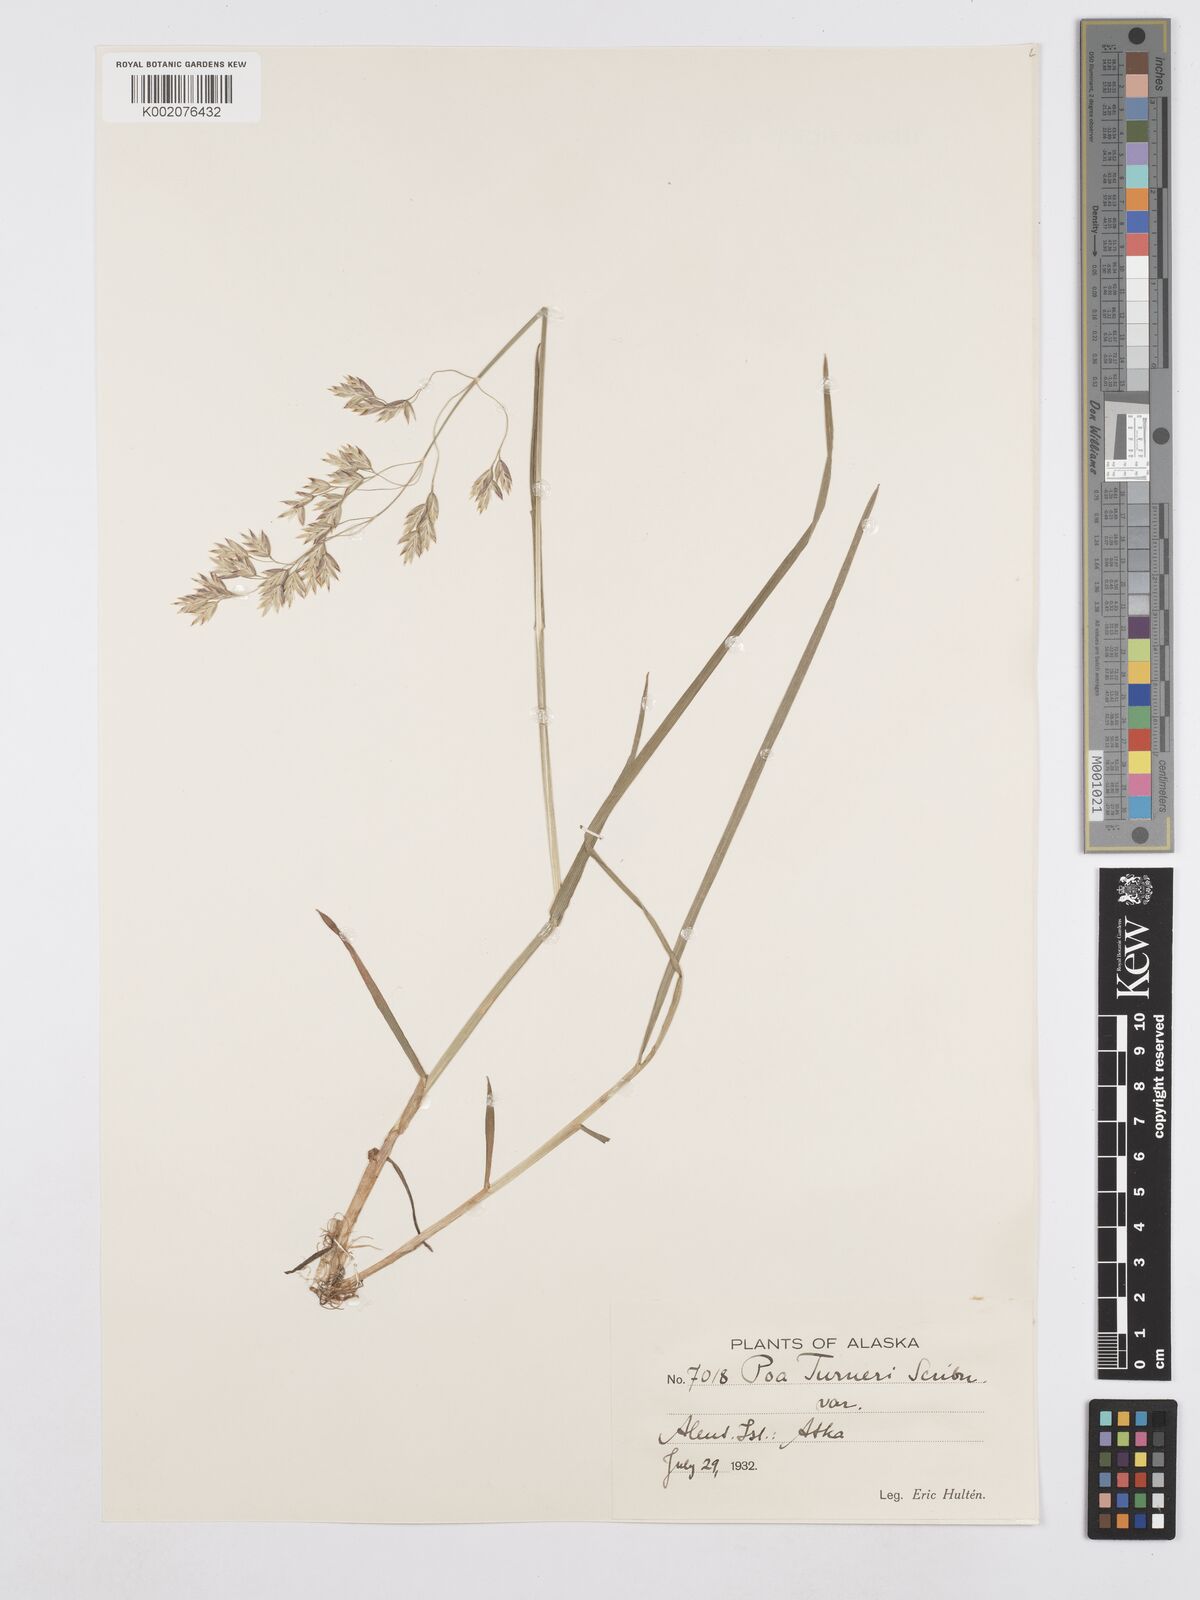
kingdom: Plantae
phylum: Tracheophyta
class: Liliopsida
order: Poales
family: Poaceae
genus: Poa
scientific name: Poa macrocalyx
